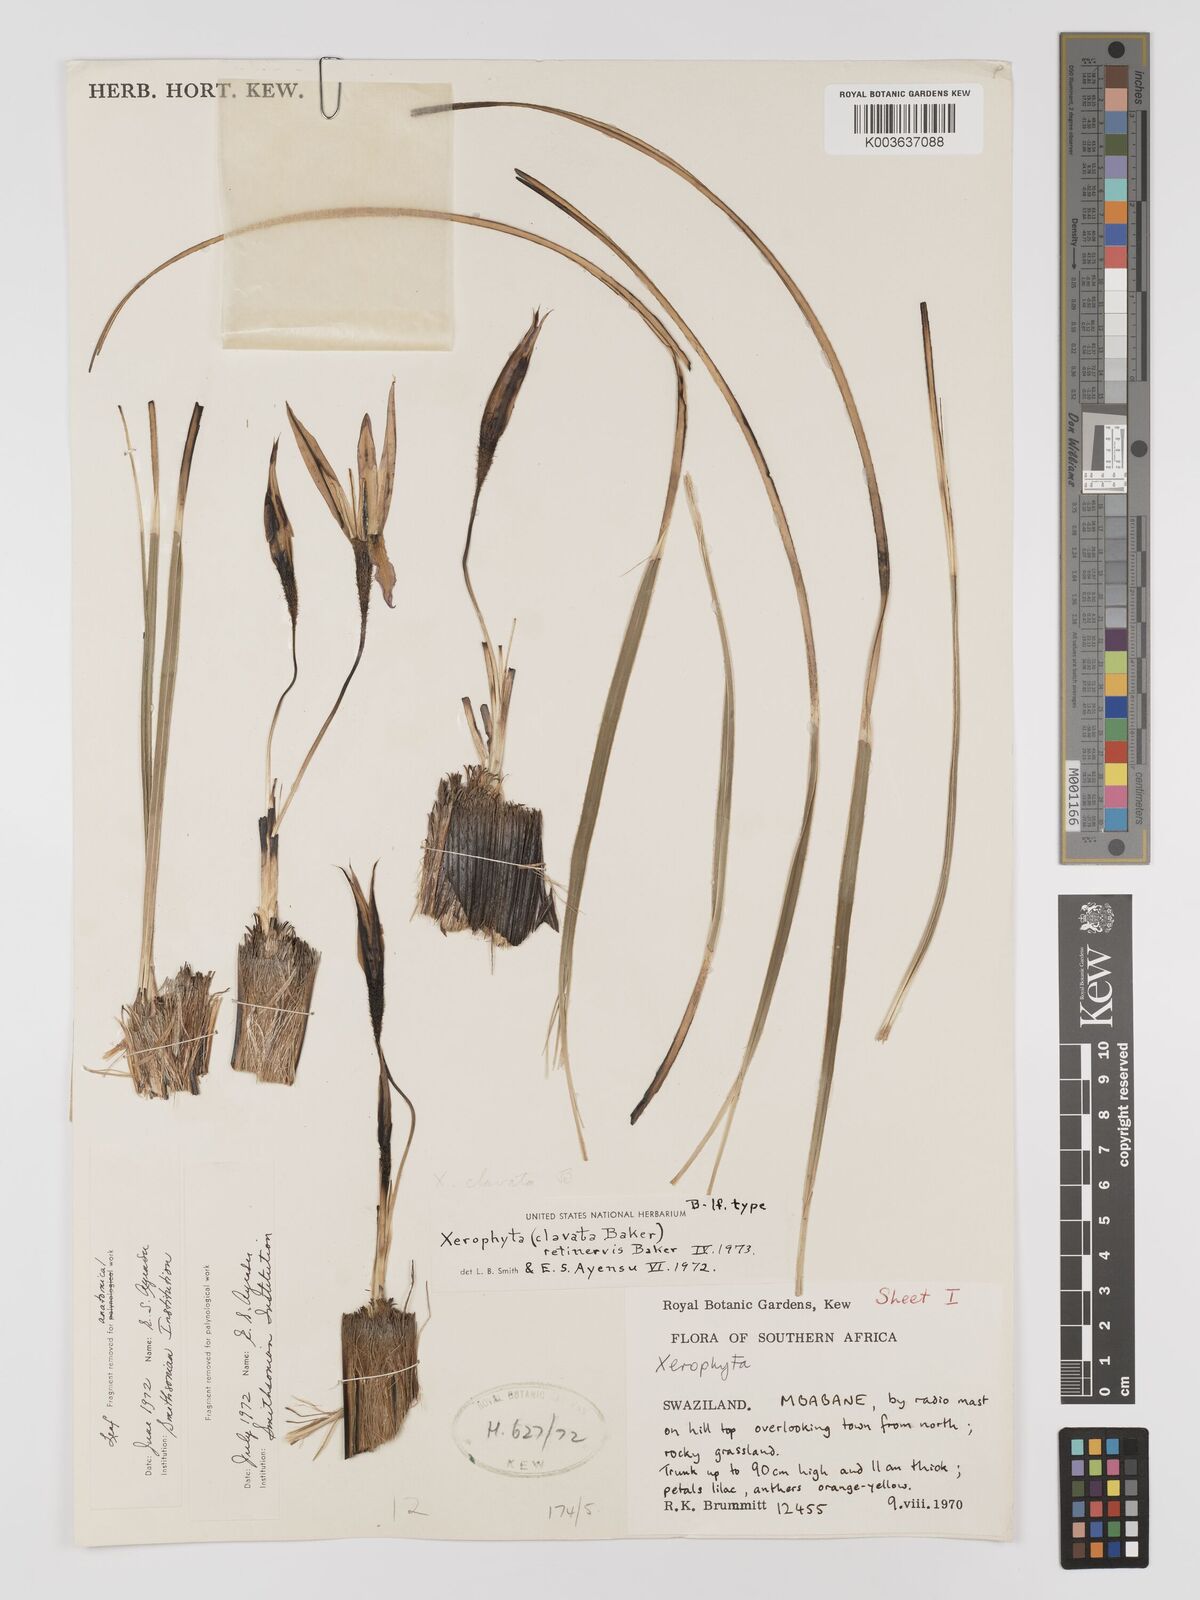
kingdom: Plantae
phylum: Tracheophyta
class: Liliopsida
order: Pandanales
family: Velloziaceae
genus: Xerophyta
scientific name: Xerophyta retinervis
